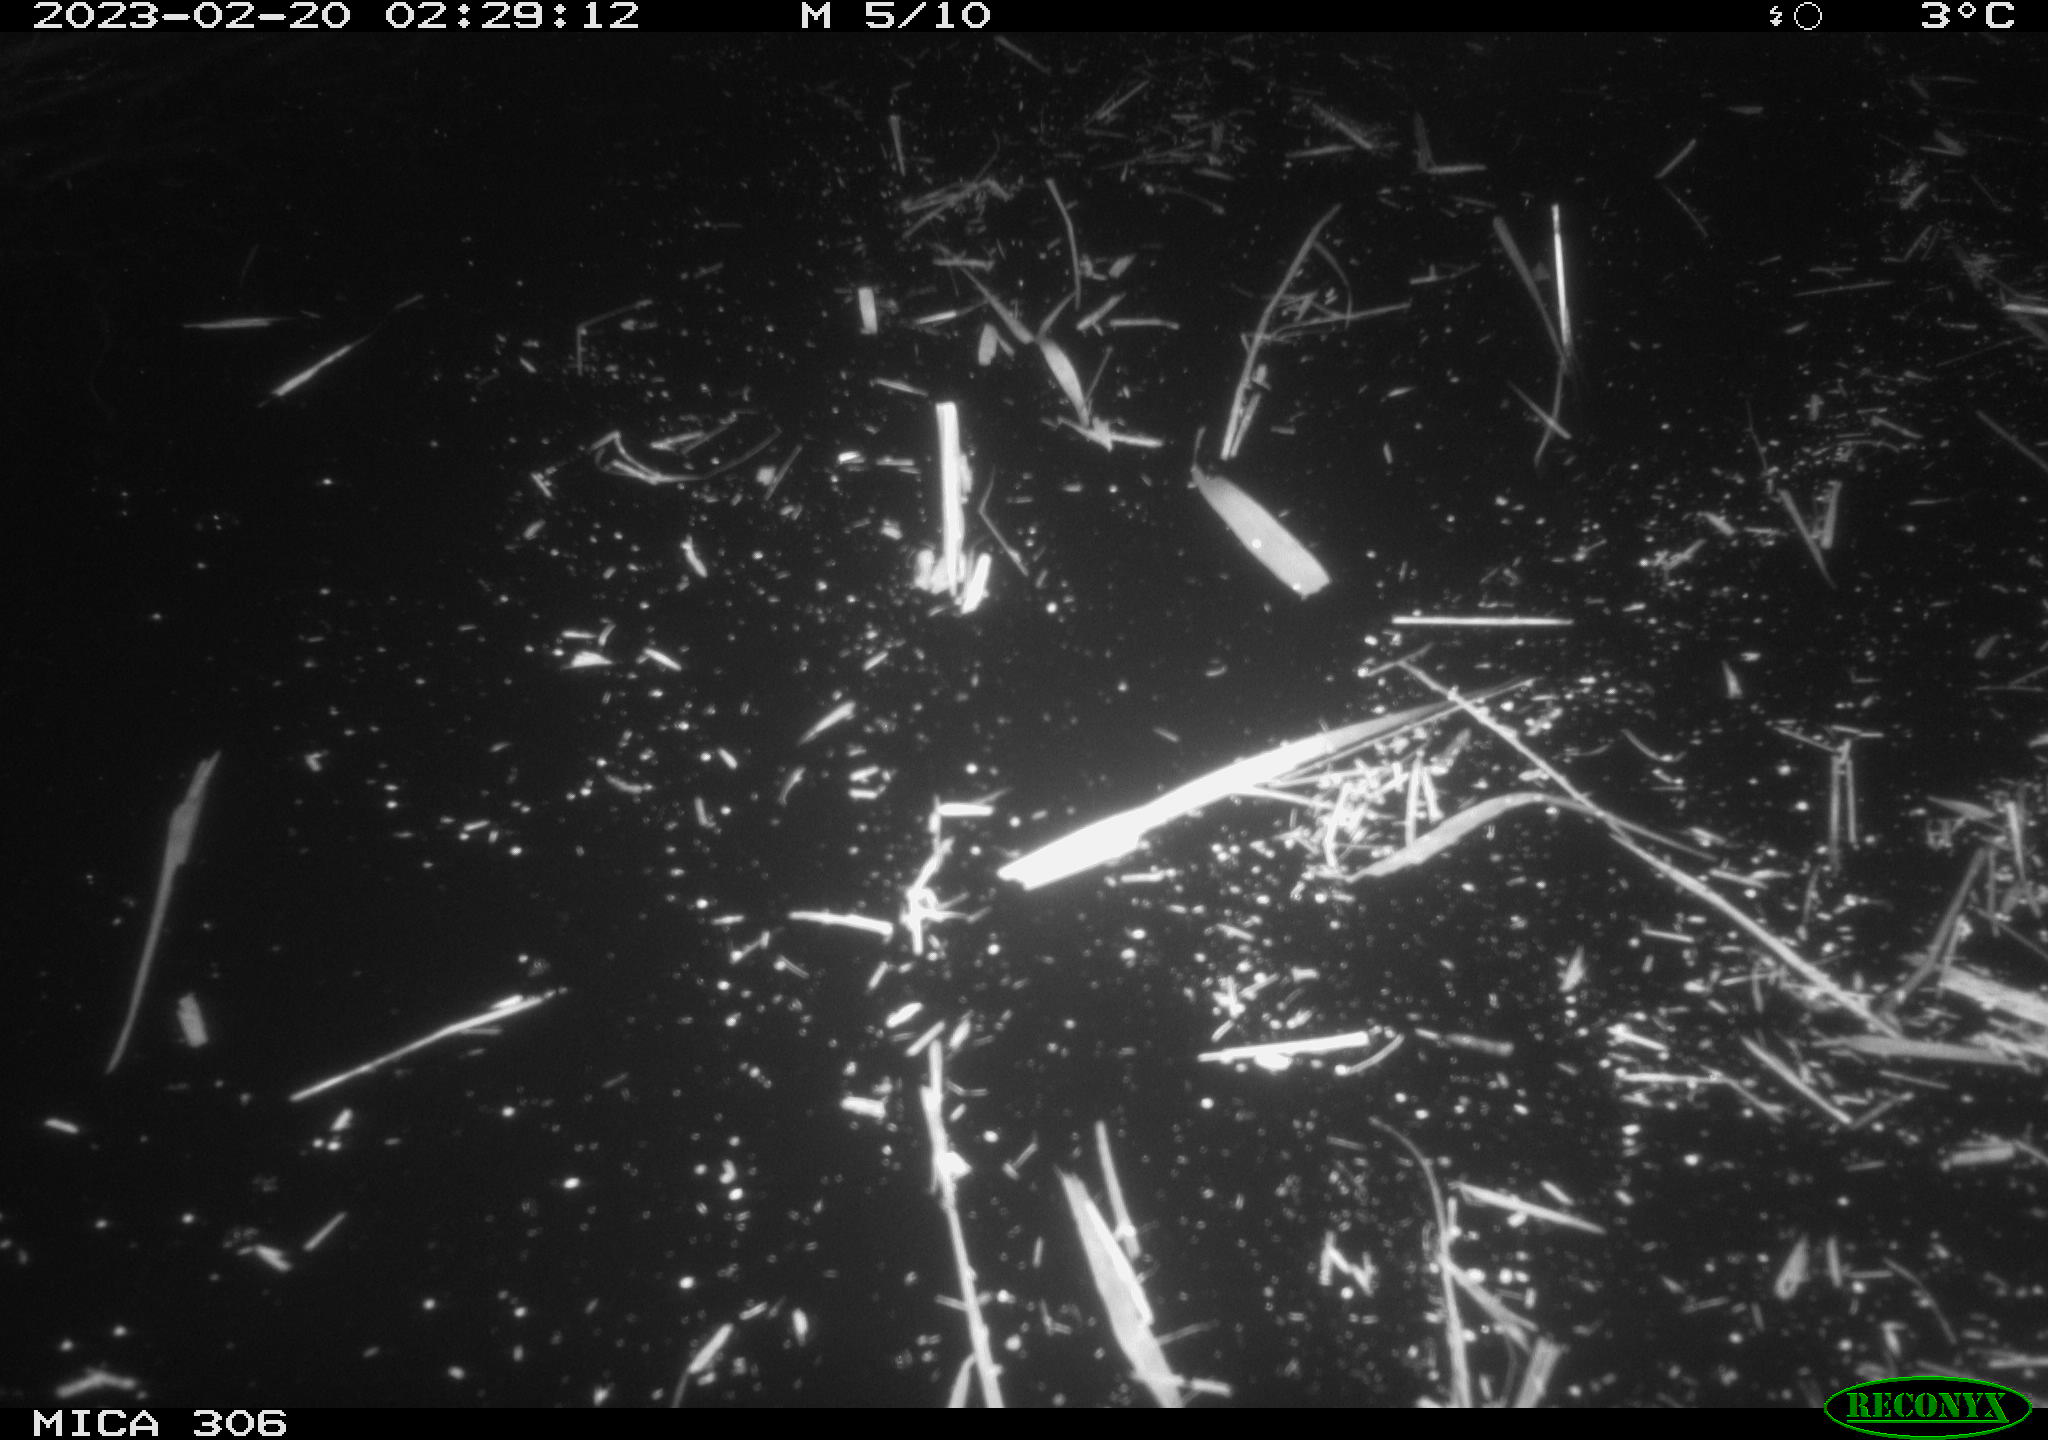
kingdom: Animalia
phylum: Chordata
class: Mammalia
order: Rodentia
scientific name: Rodentia
